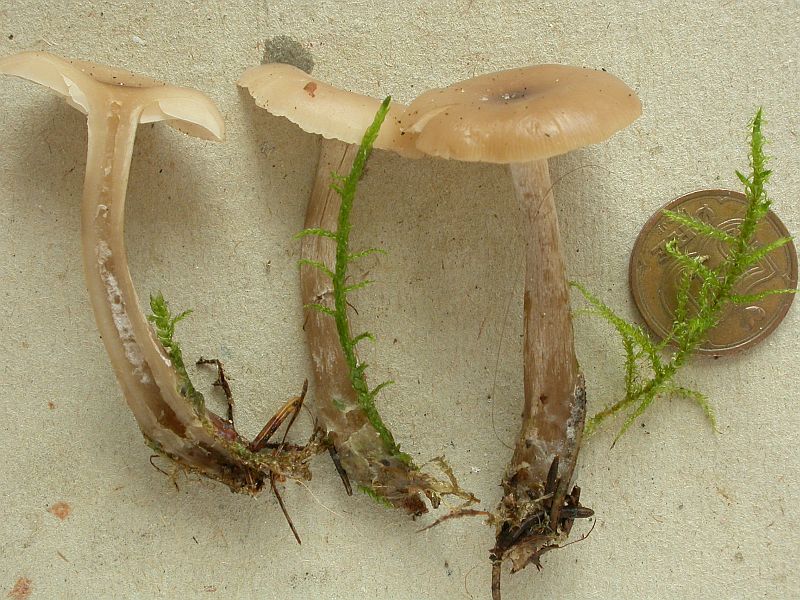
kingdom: Fungi
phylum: Basidiomycota
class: Agaricomycetes
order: Agaricales
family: Tricholomataceae
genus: Clitocybe
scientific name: Clitocybe metachroa
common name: grå tragthat
